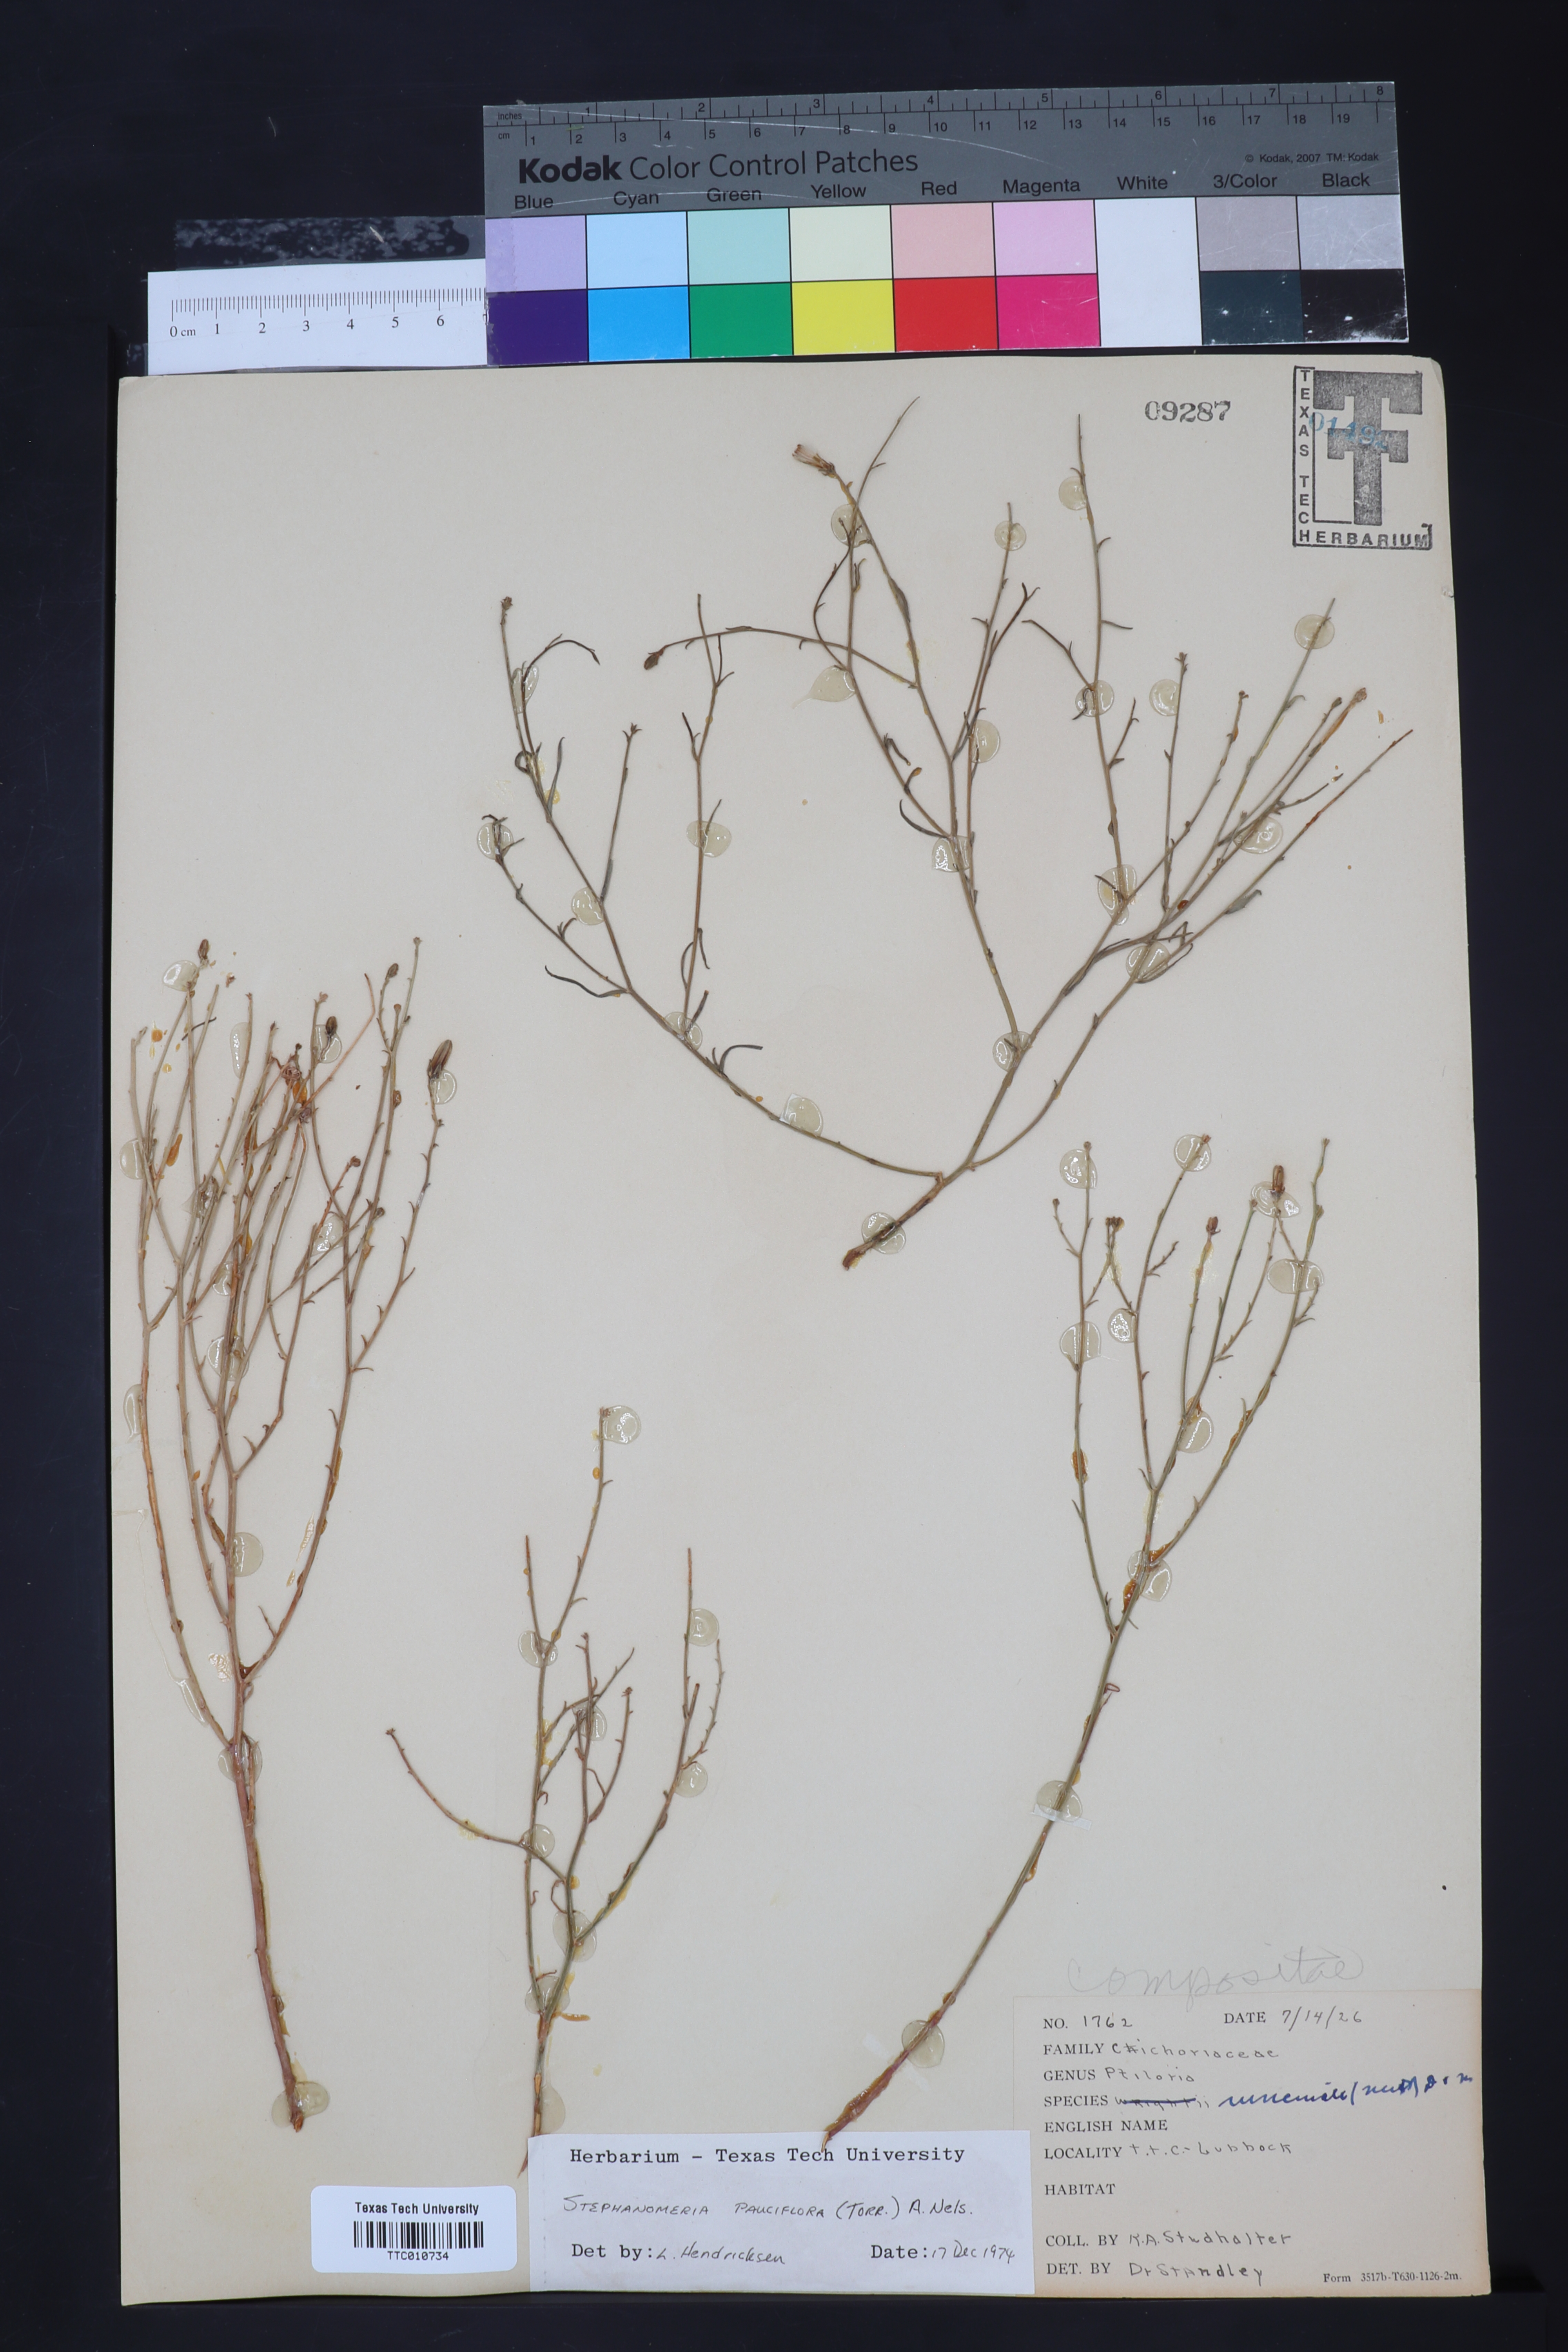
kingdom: Plantae
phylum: Tracheophyta
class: Magnoliopsida
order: Asterales
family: Asteraceae
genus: Stephanomeria
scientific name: Stephanomeria pauciflora
